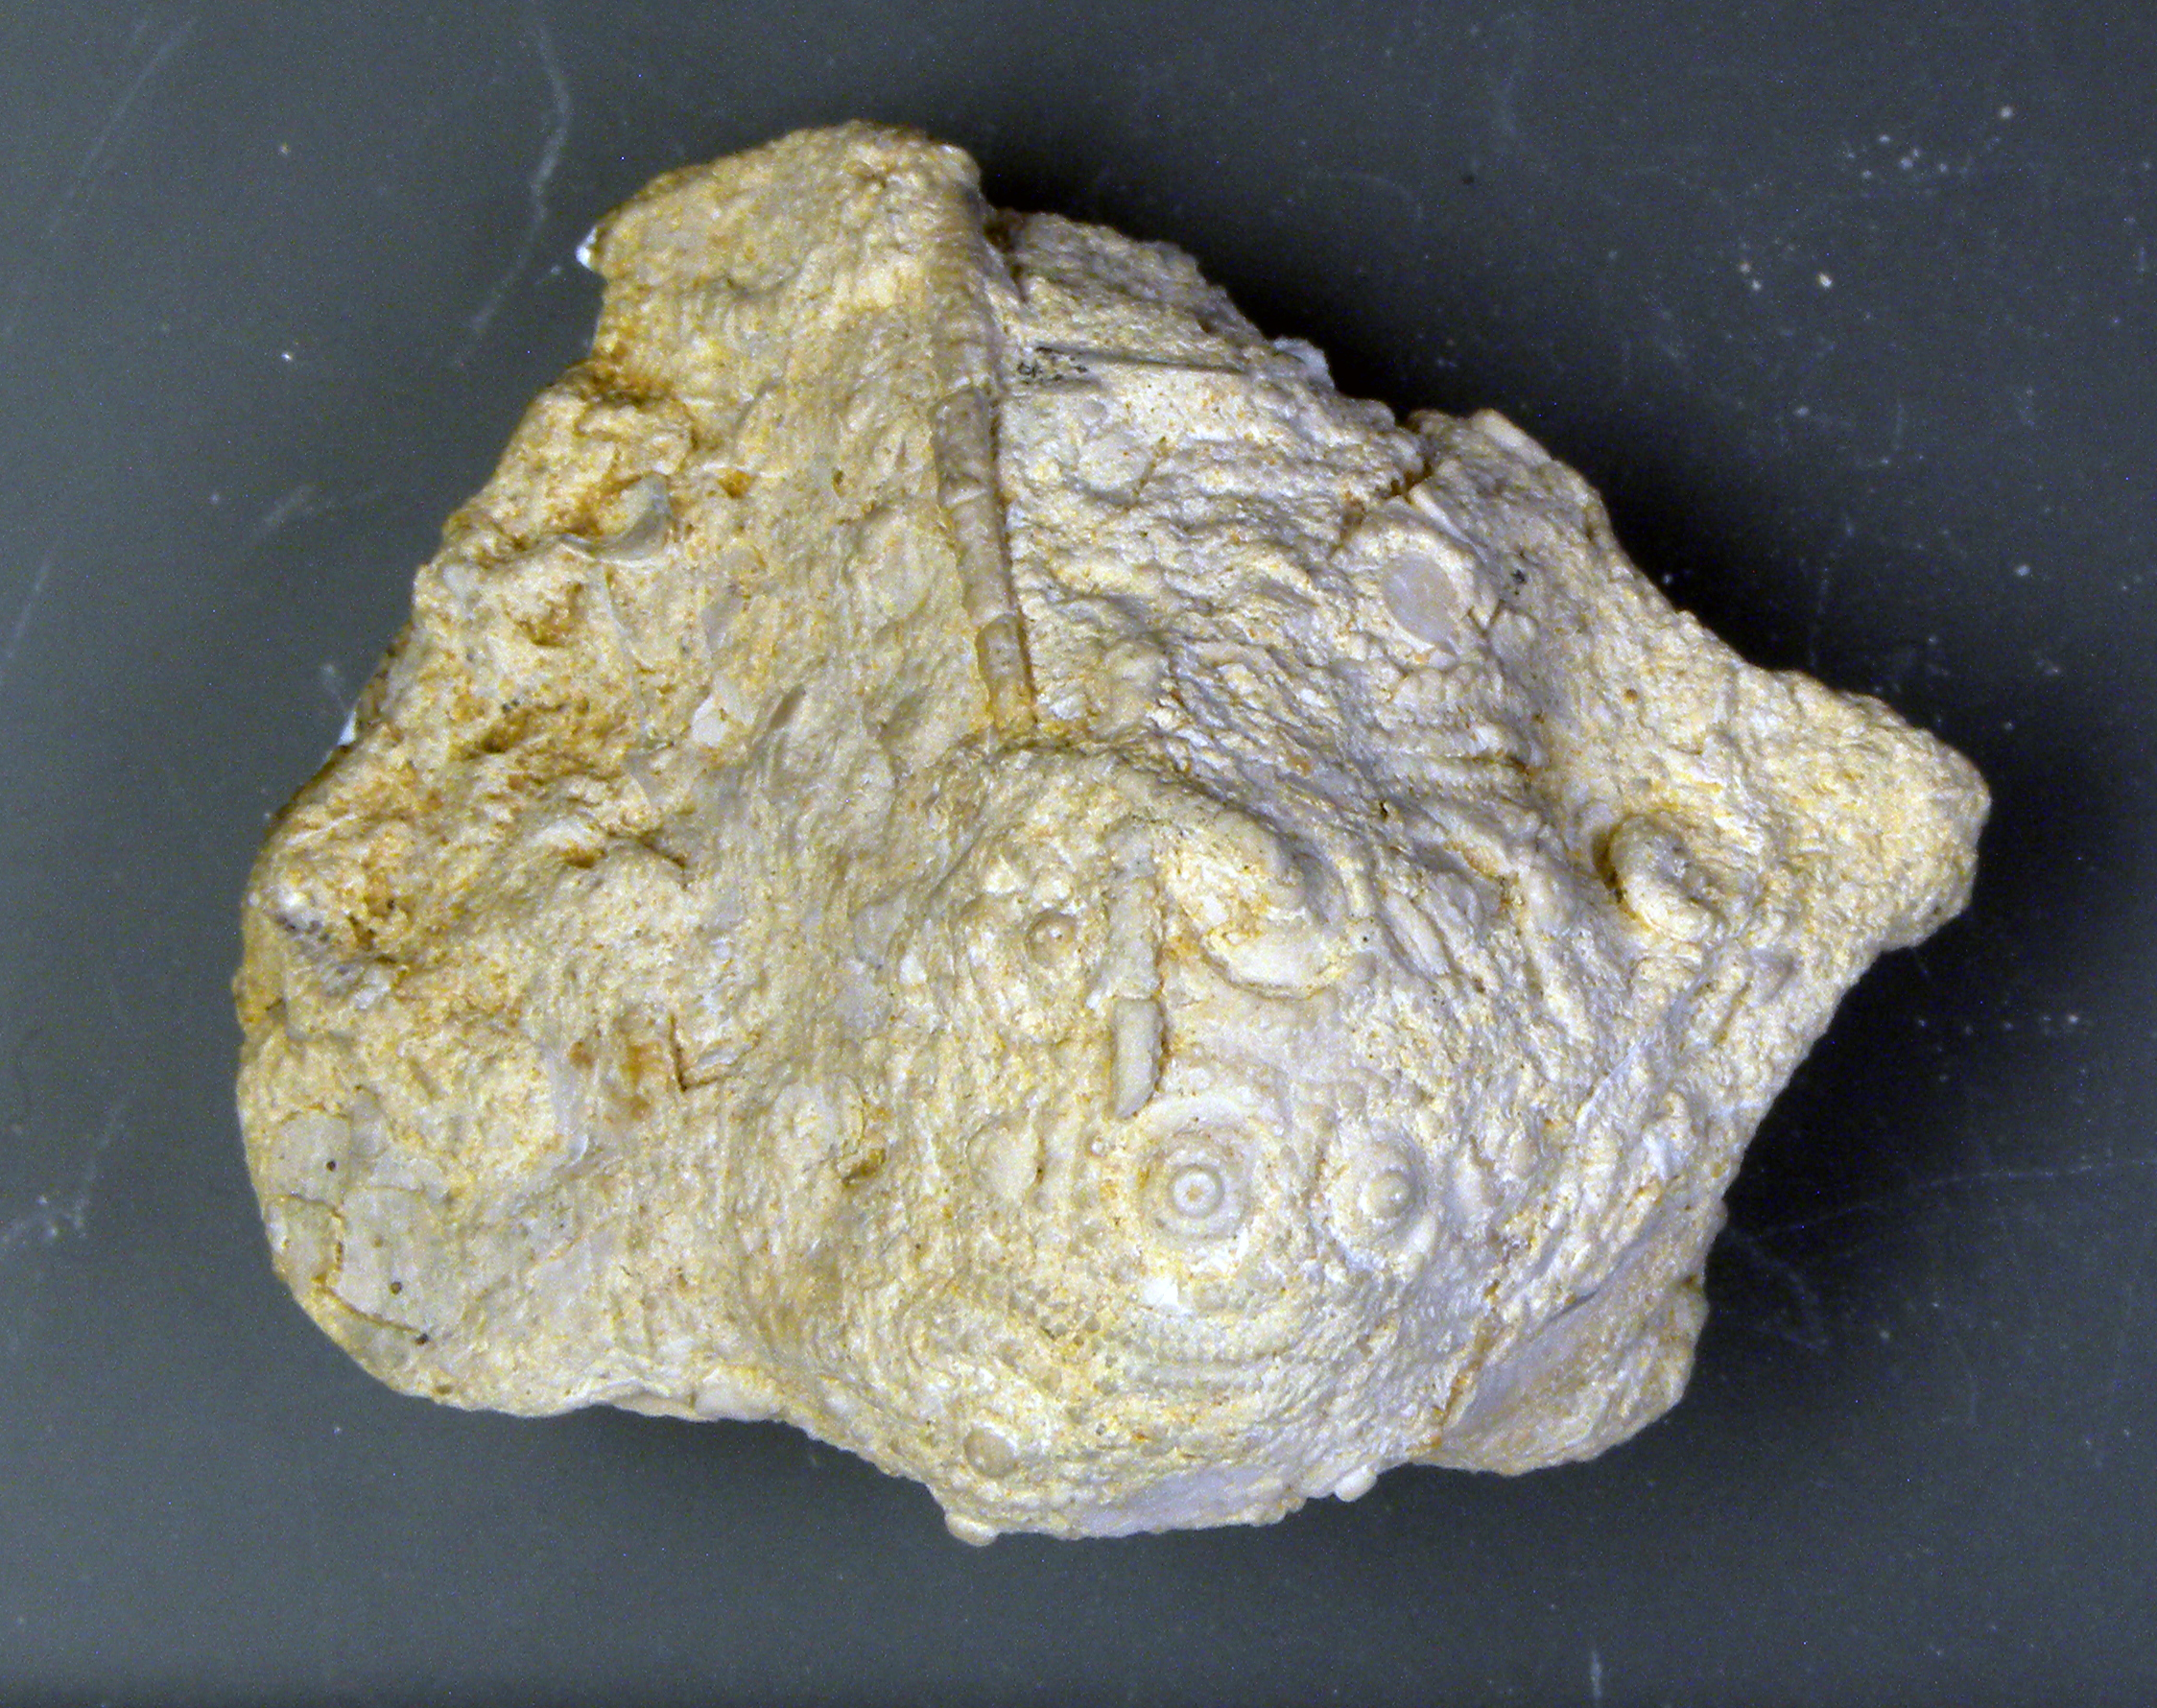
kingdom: Animalia
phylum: Echinodermata
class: Echinoidea
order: Cidaroida
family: Polycidaridae
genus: Anisocidaris
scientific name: Anisocidaris
